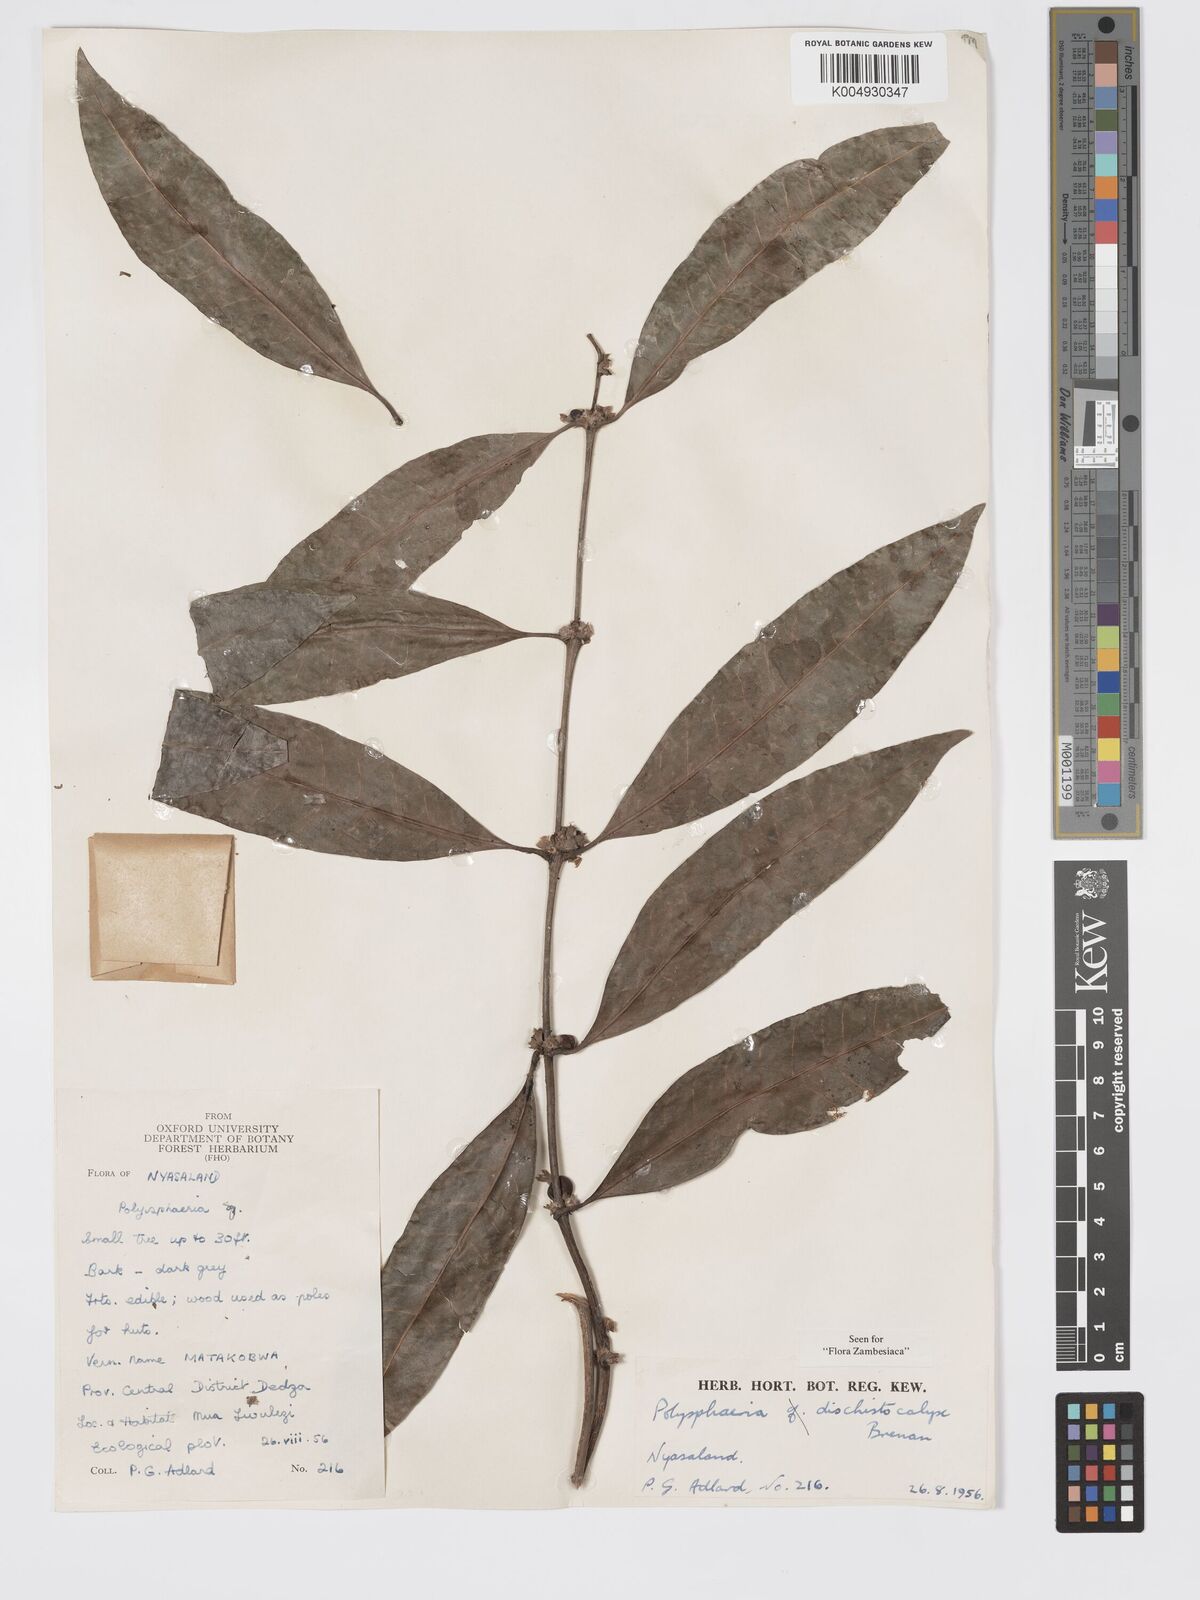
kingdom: Plantae
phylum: Tracheophyta
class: Magnoliopsida
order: Gentianales
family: Rubiaceae
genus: Polysphaeria
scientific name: Polysphaeria dischistocalyx
